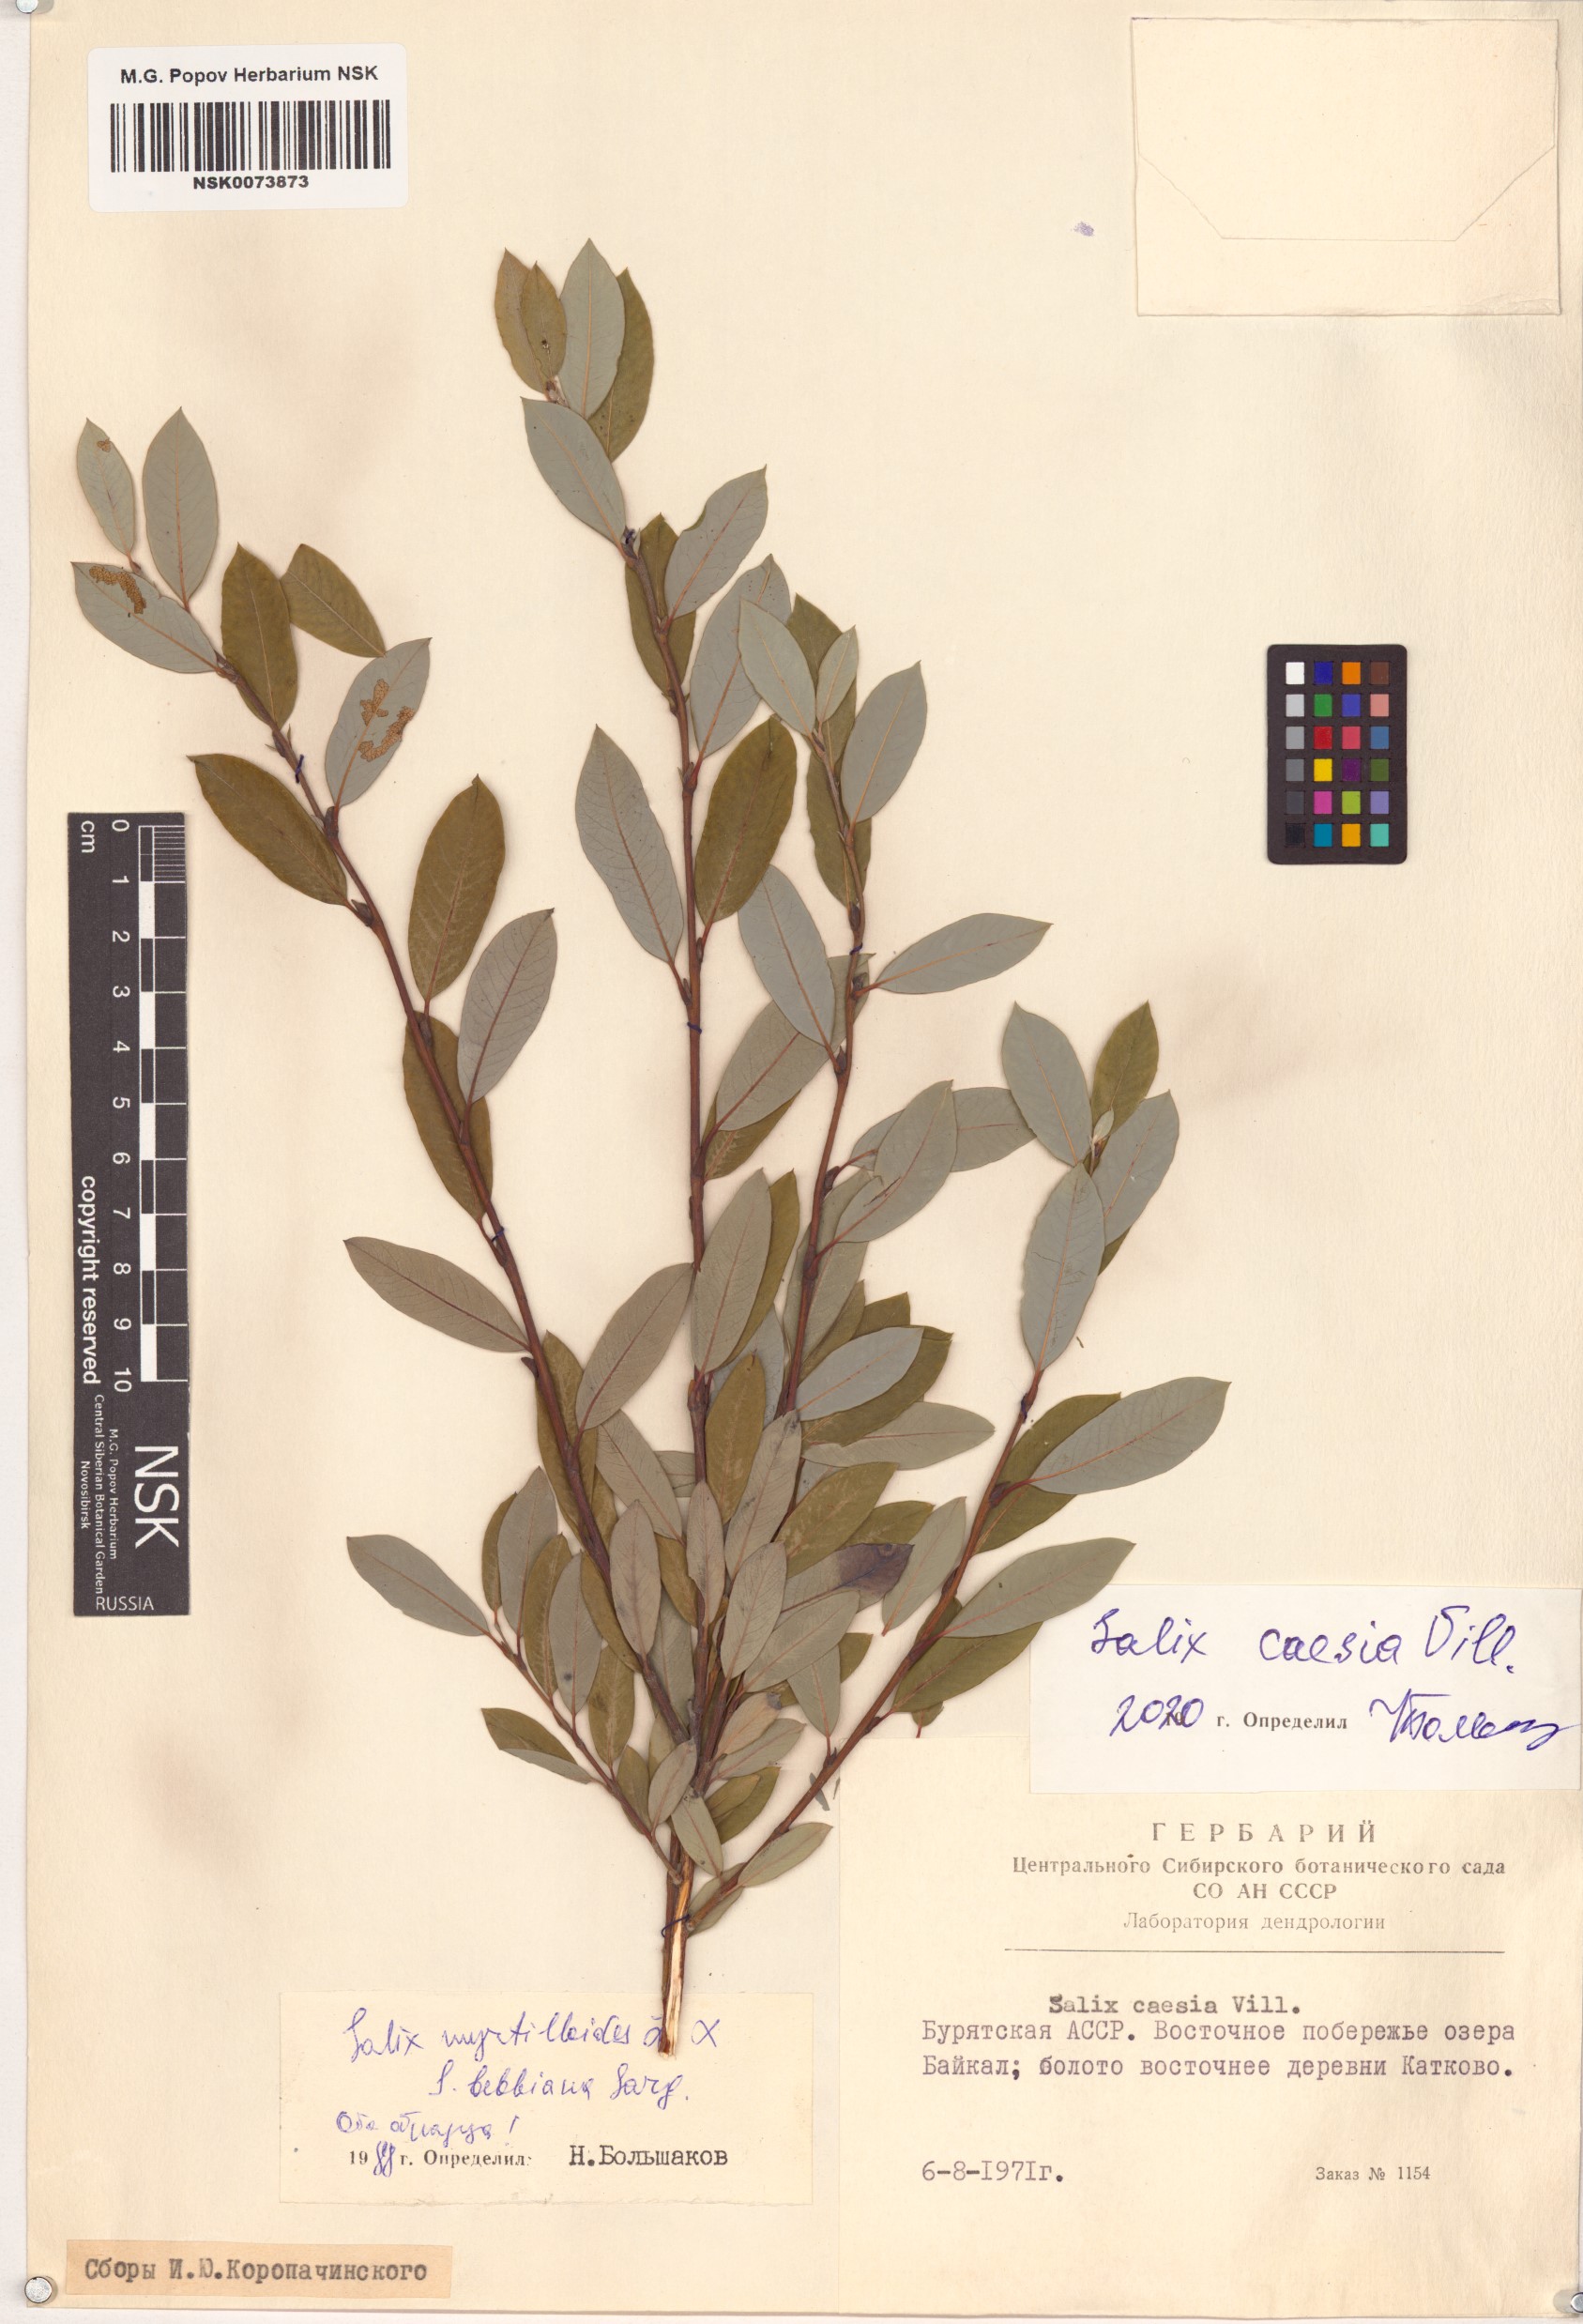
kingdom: Plantae
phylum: Tracheophyta
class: Magnoliopsida
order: Malpighiales
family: Salicaceae
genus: Salix
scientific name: Salix caesia
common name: Blue willow
